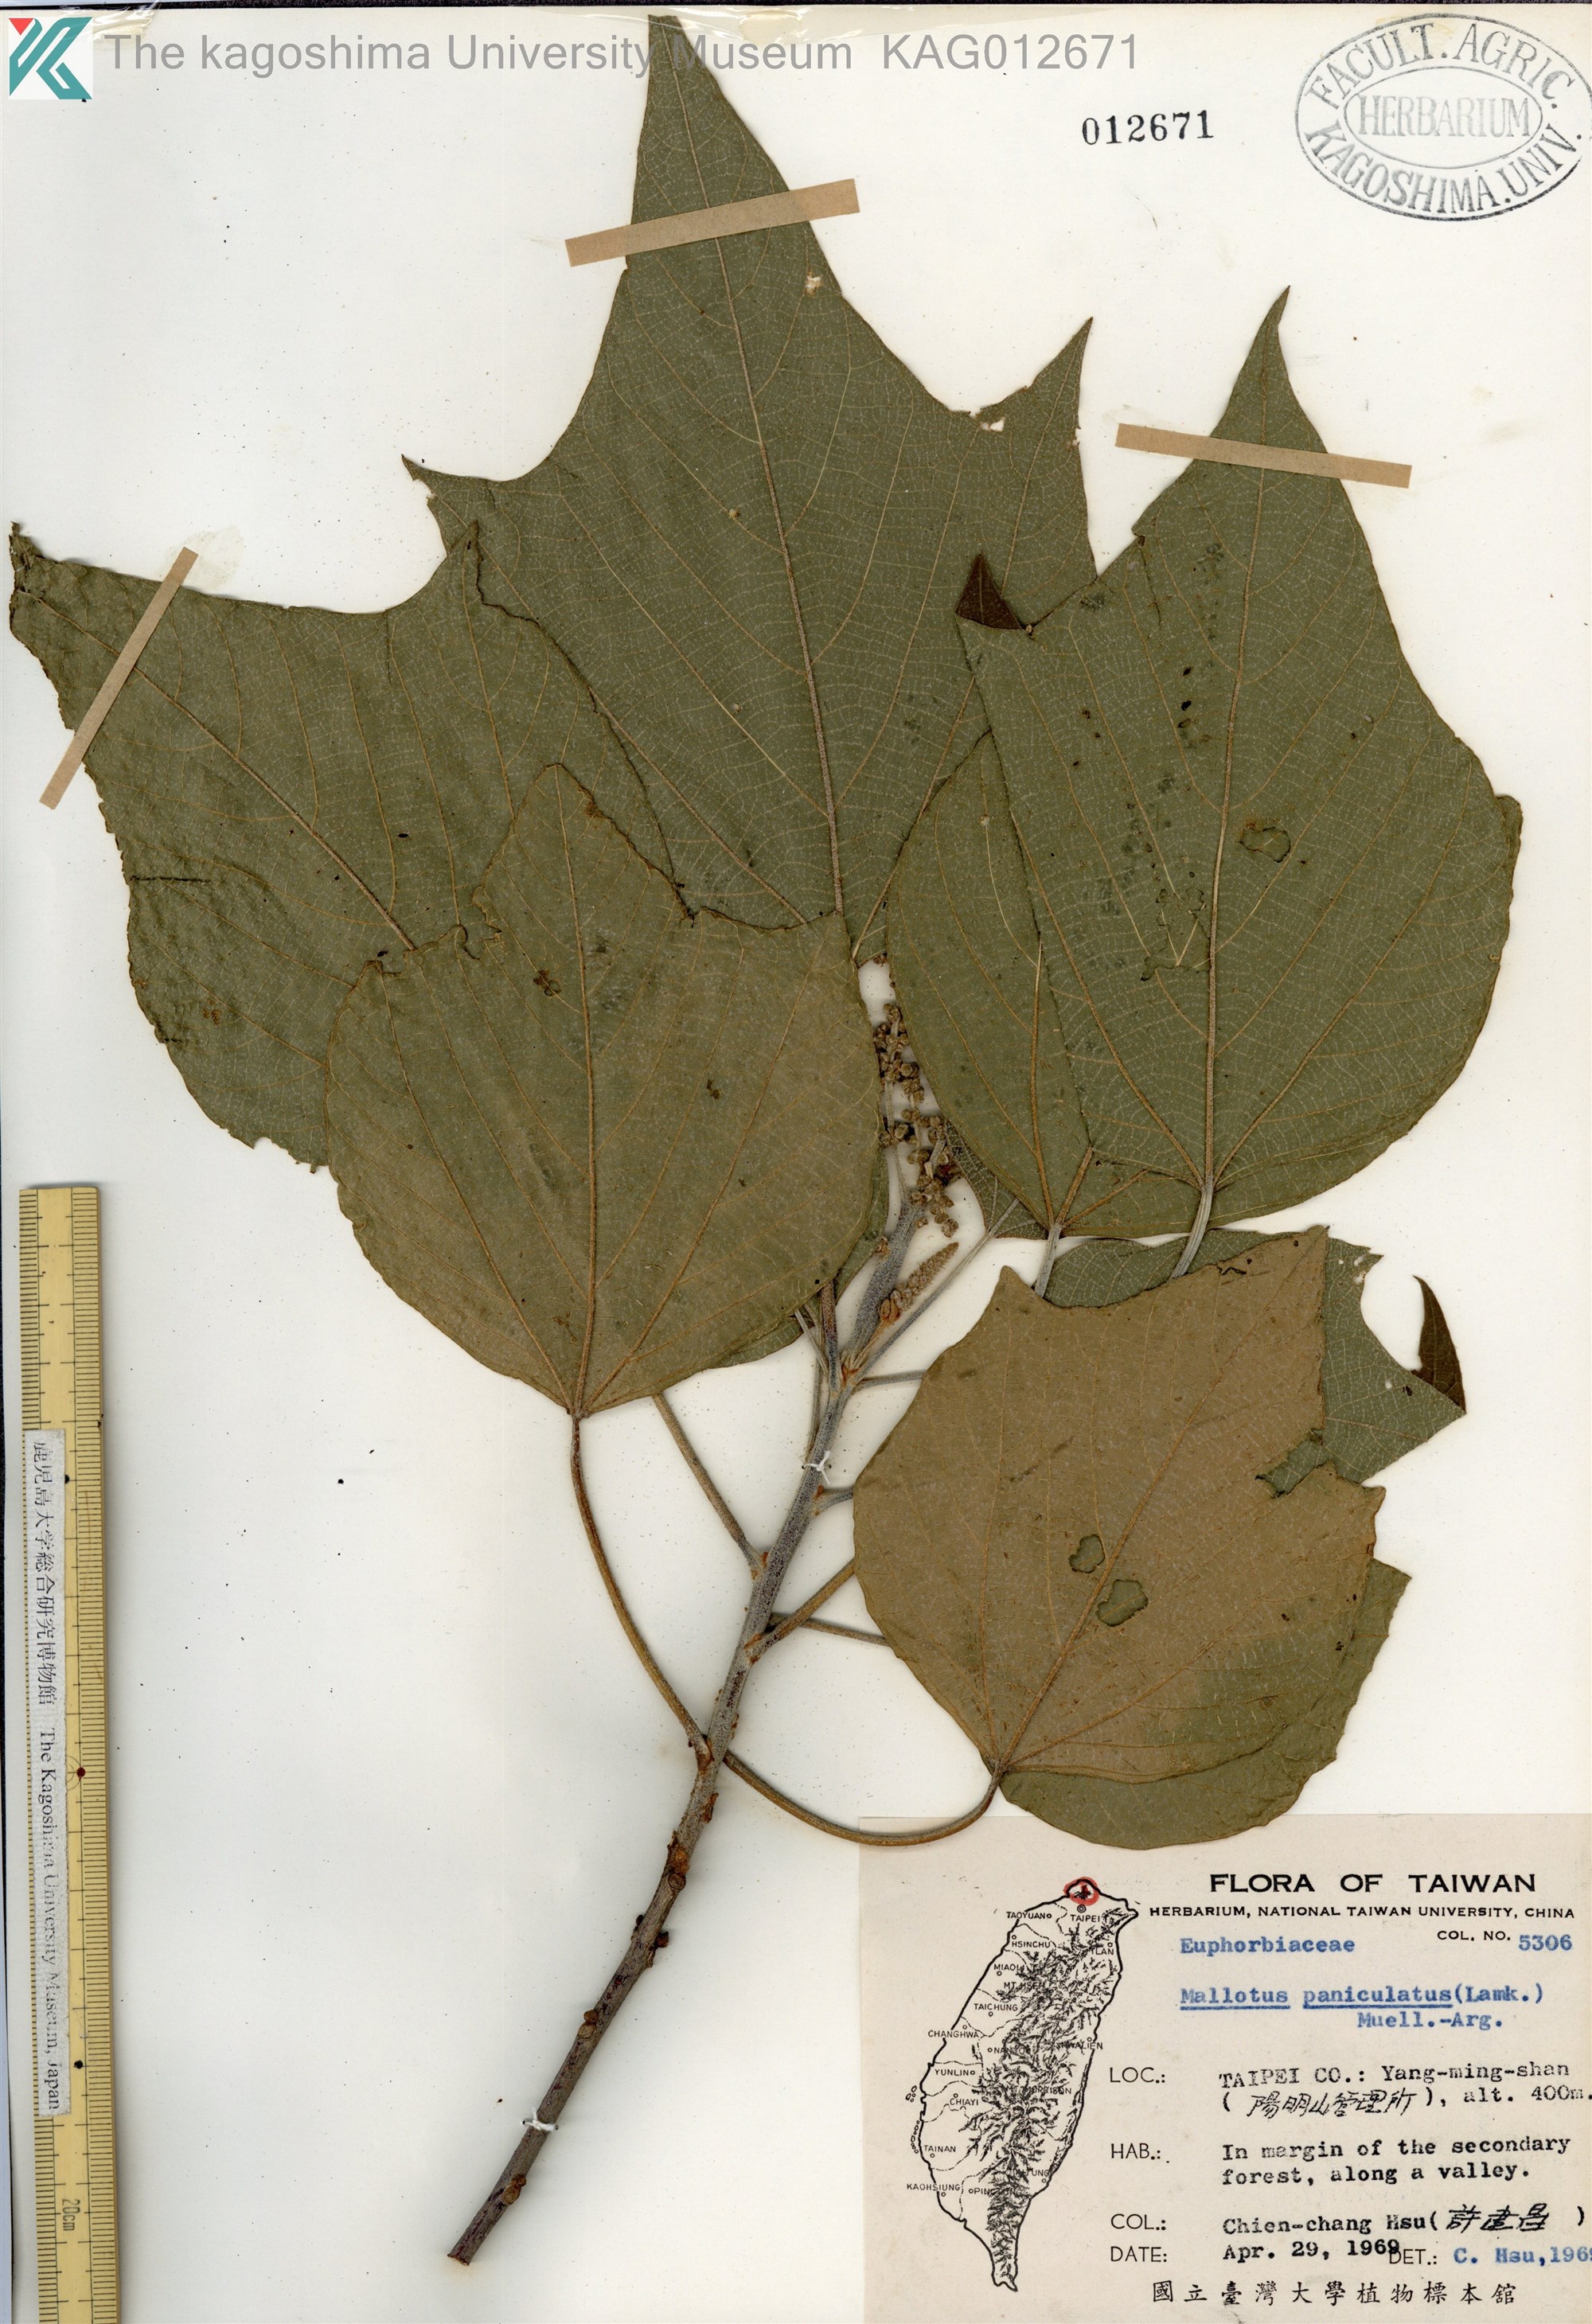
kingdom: Plantae
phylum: Tracheophyta
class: Magnoliopsida
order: Malpighiales
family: Euphorbiaceae
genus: Mallotus
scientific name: Mallotus paniculatus
